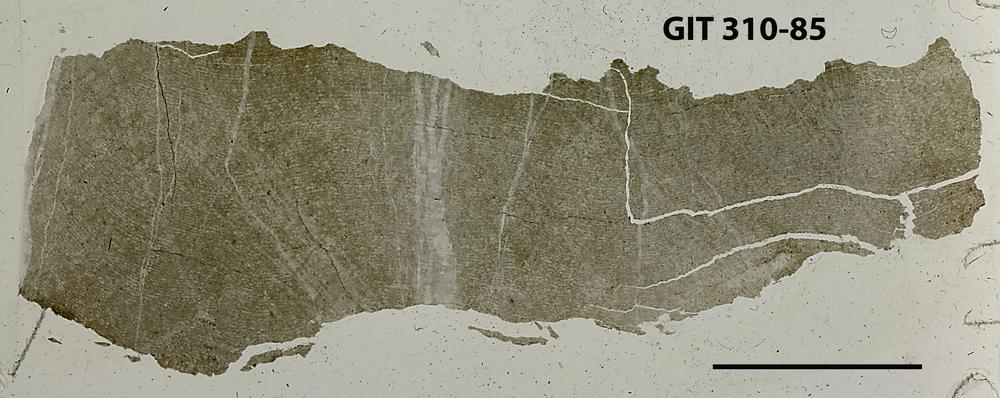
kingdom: Animalia
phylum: Porifera
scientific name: Porifera
